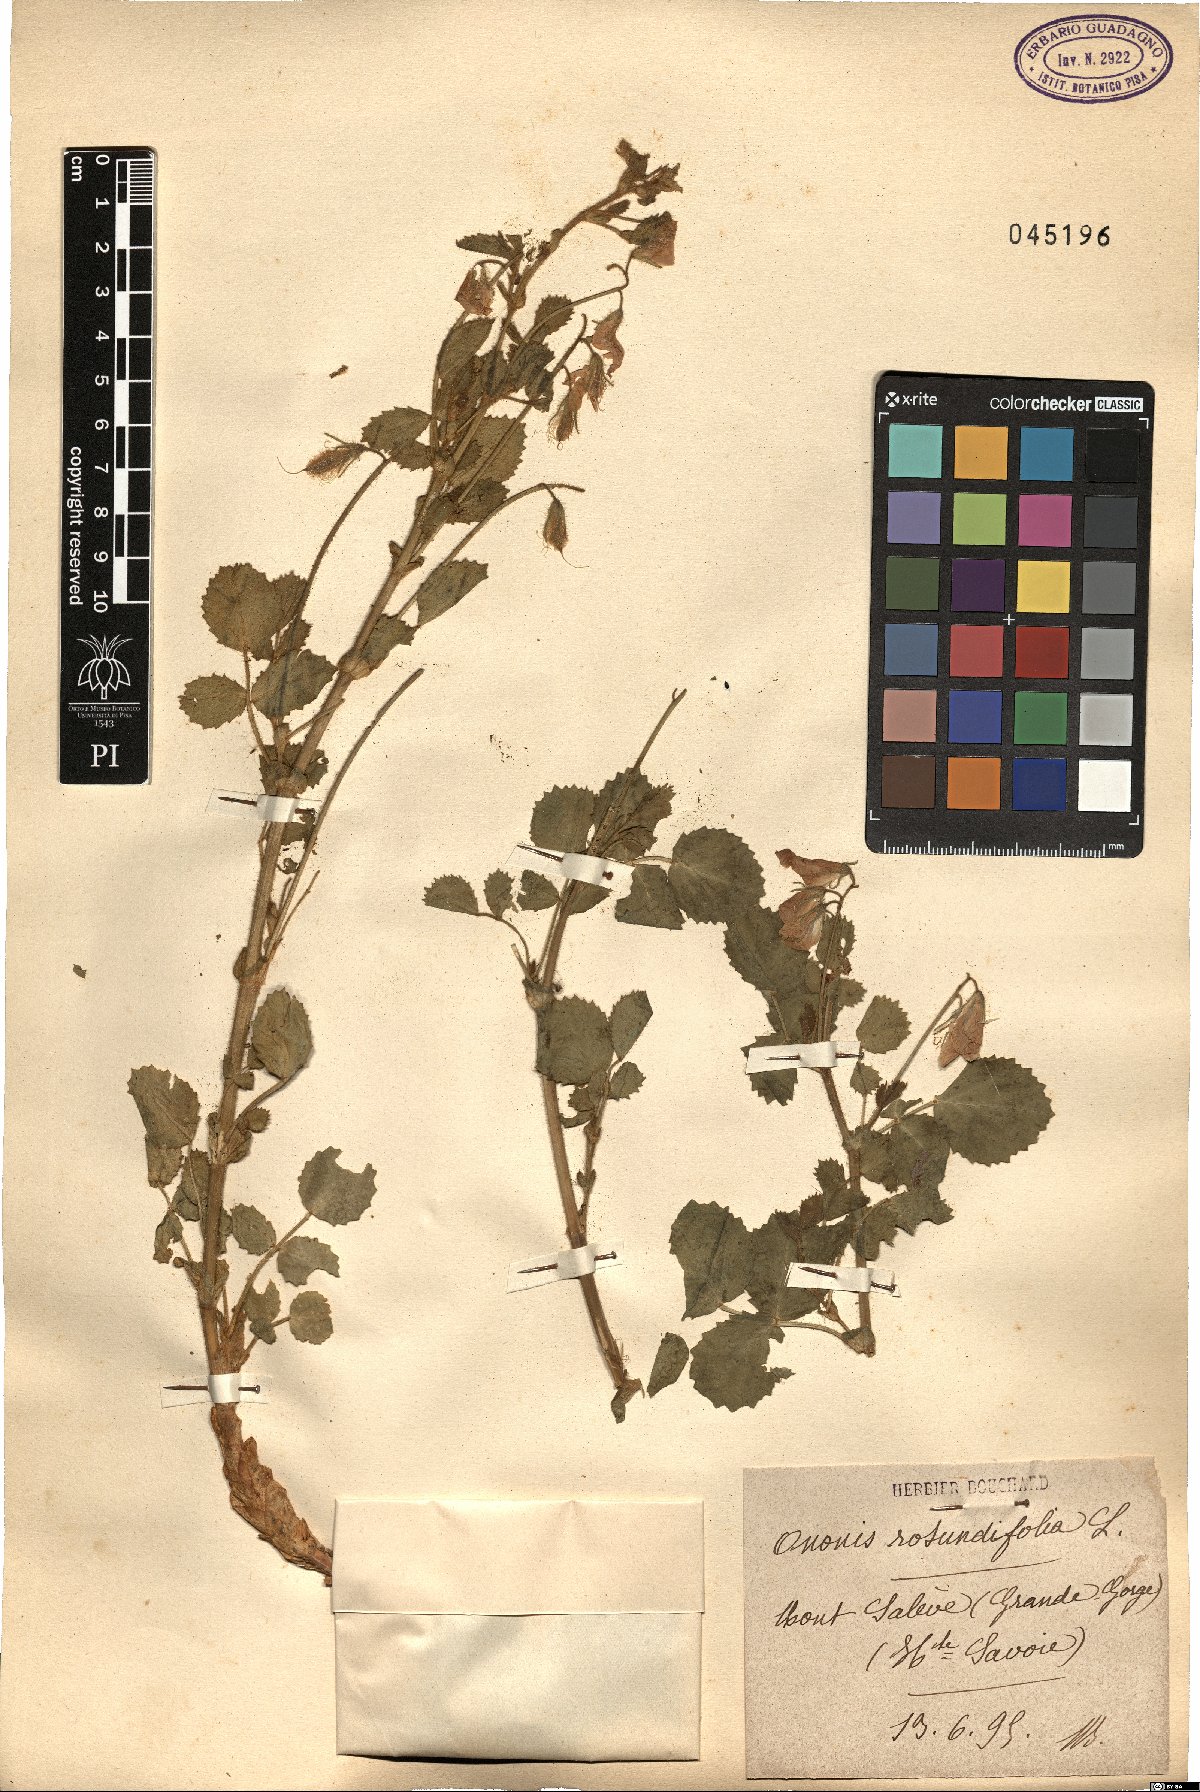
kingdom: Plantae
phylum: Tracheophyta
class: Magnoliopsida
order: Fabales
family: Fabaceae
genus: Ononis
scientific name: Ononis rotundifolia
